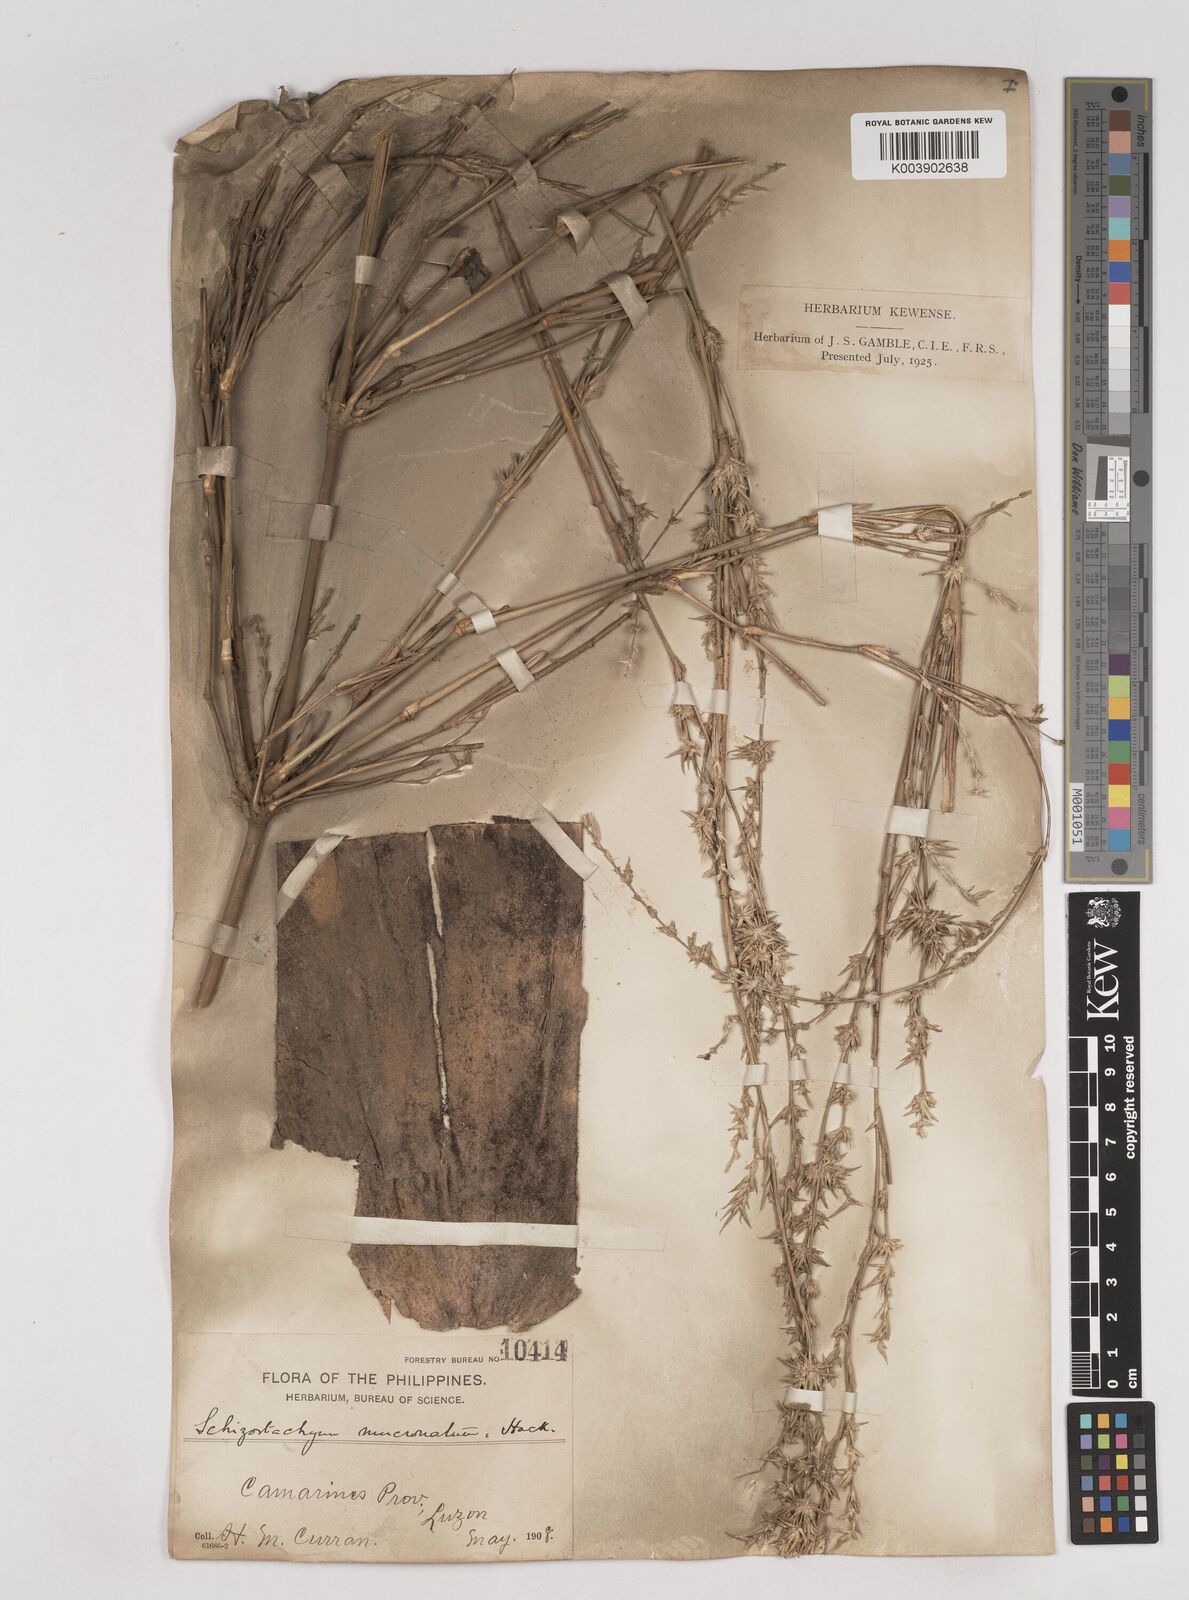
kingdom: Plantae
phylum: Tracheophyta
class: Liliopsida
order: Poales
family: Poaceae
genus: Schizostachyum
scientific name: Schizostachyum lumampao
